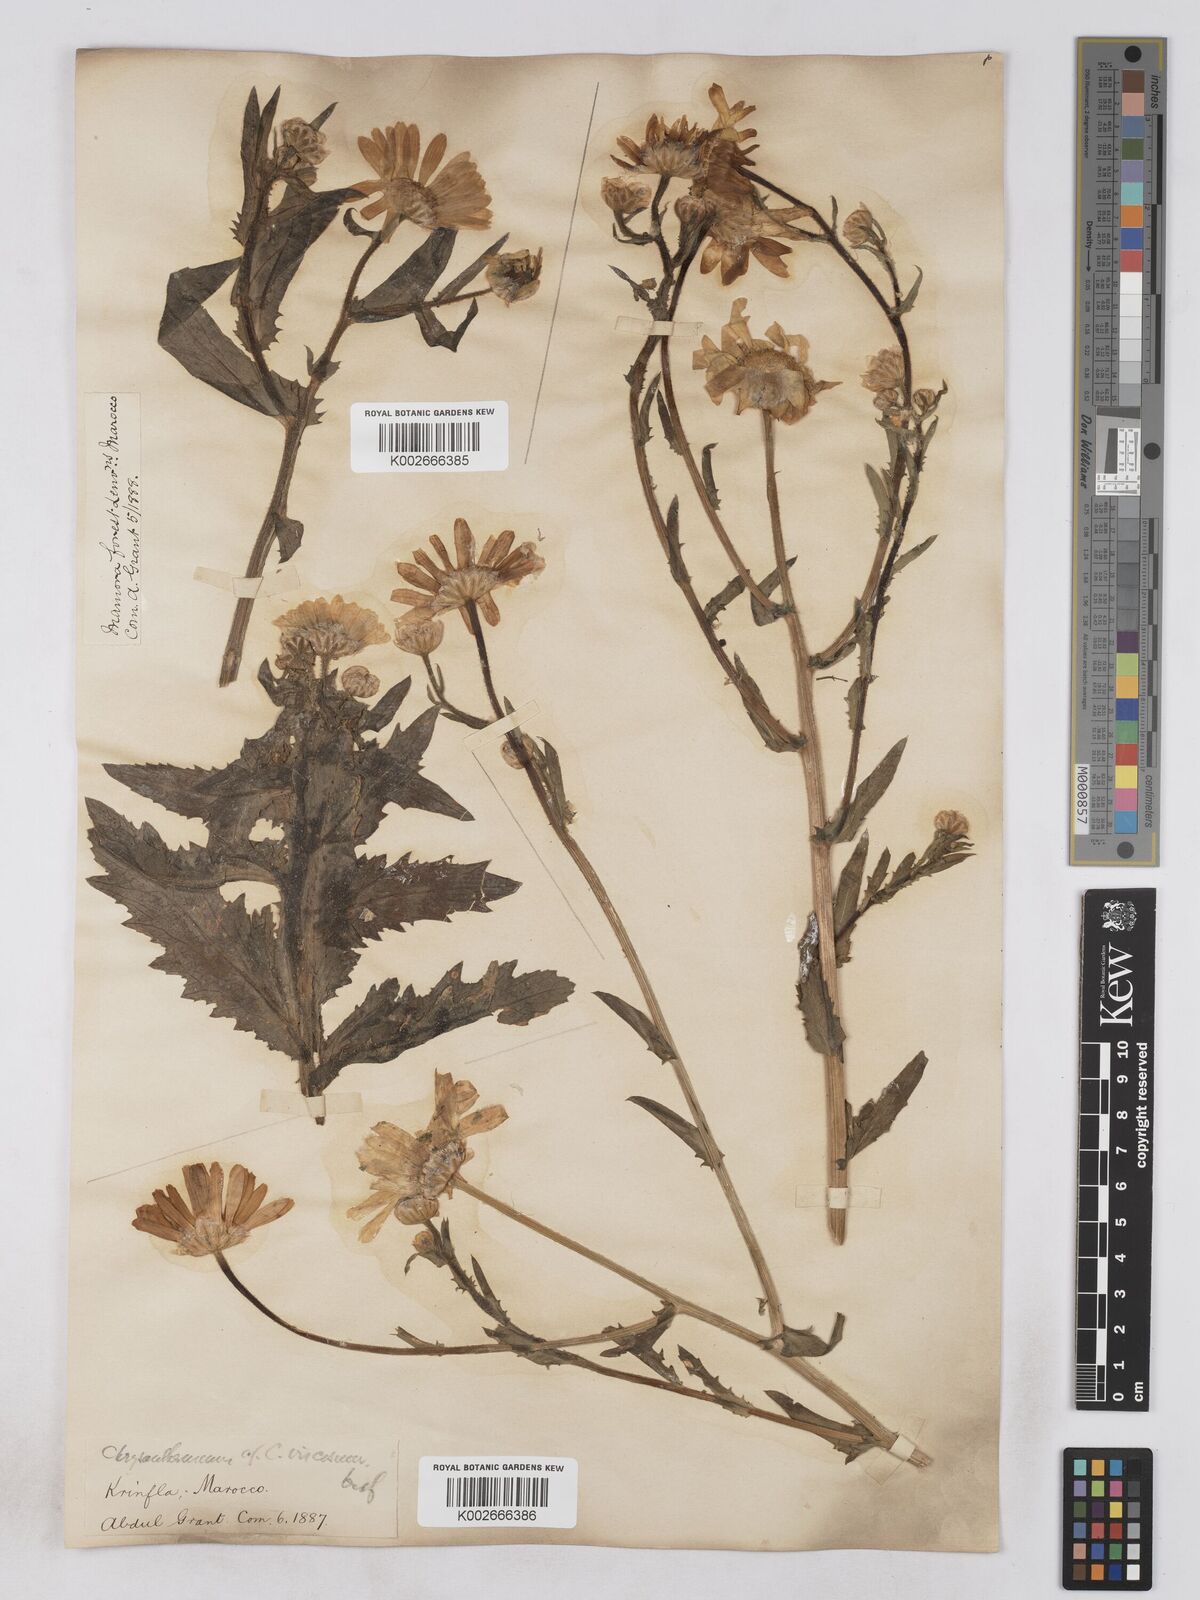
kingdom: Plantae
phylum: Tracheophyta
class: Magnoliopsida
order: Asterales
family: Asteraceae
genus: Heteranthemis
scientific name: Heteranthemis
